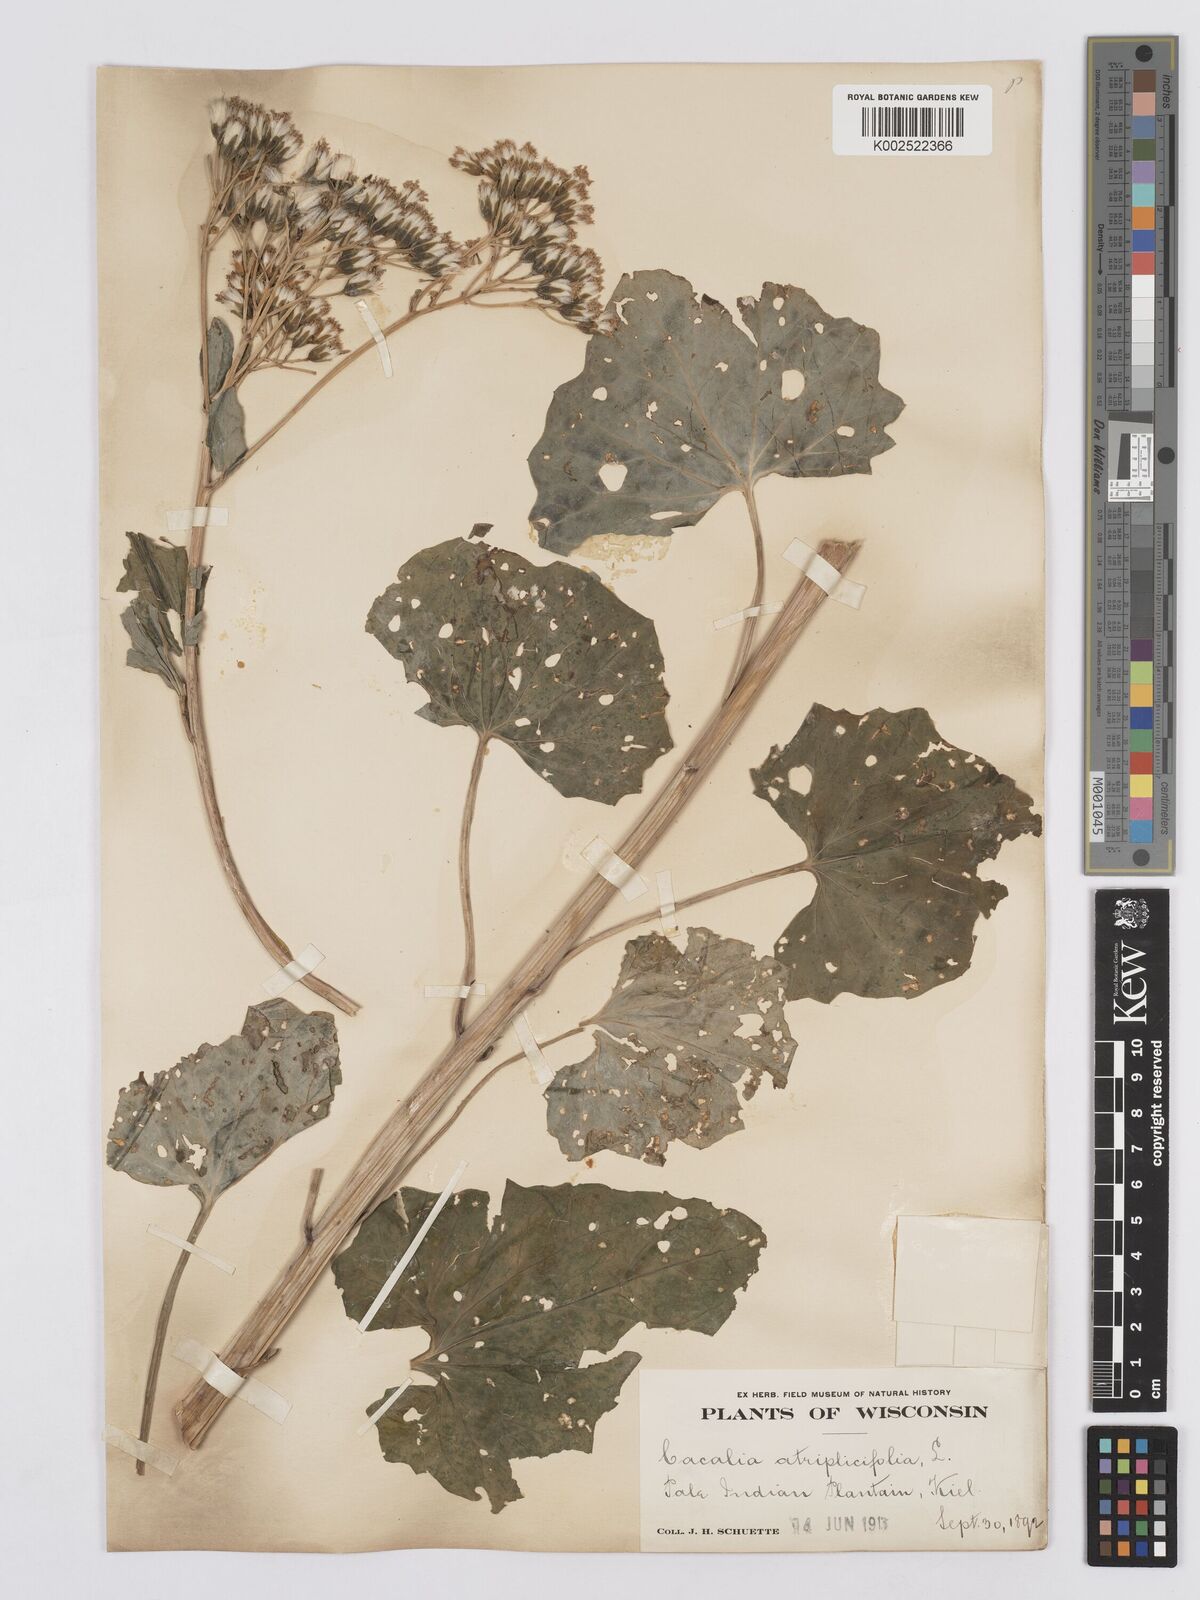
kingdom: Plantae
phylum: Tracheophyta
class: Magnoliopsida
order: Asterales
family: Asteraceae
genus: Arnoglossum
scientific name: Arnoglossum atriplicifolium
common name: Pale indian-plantain
